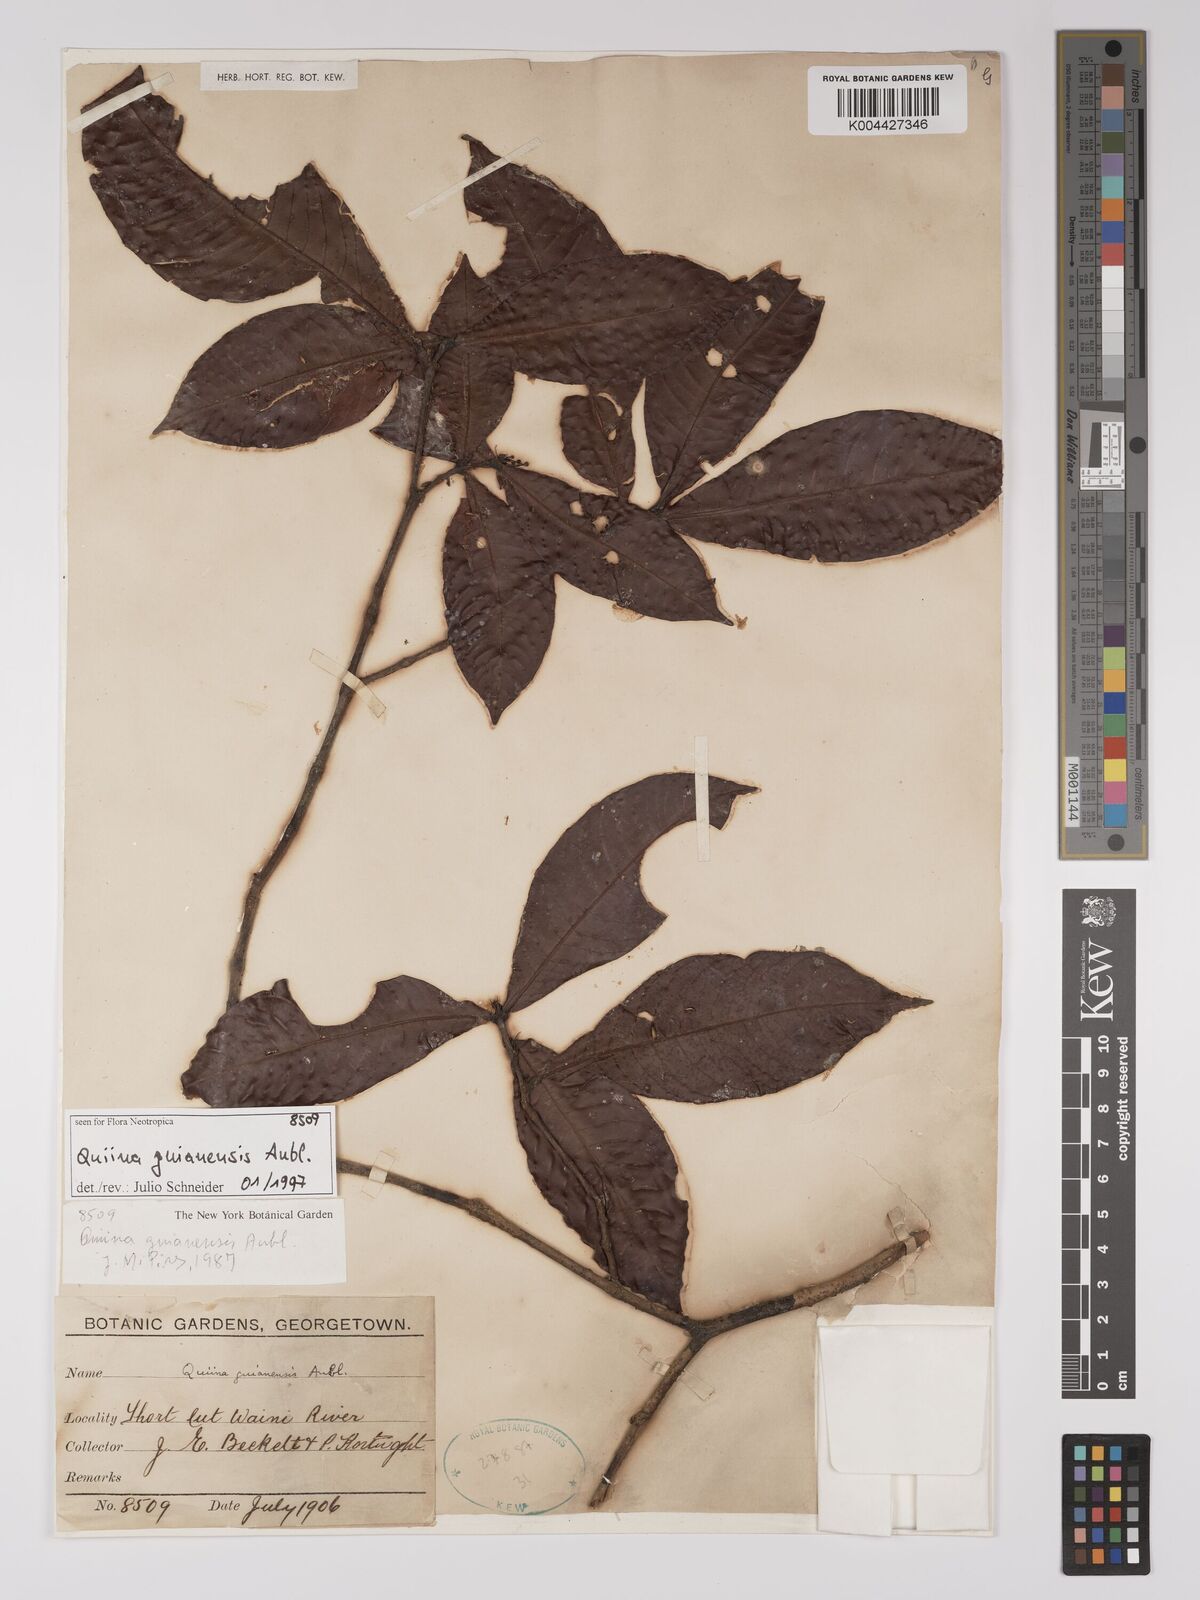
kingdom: Plantae
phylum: Tracheophyta
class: Magnoliopsida
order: Malpighiales
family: Quiinaceae
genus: Quiina
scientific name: Quiina guianensis
